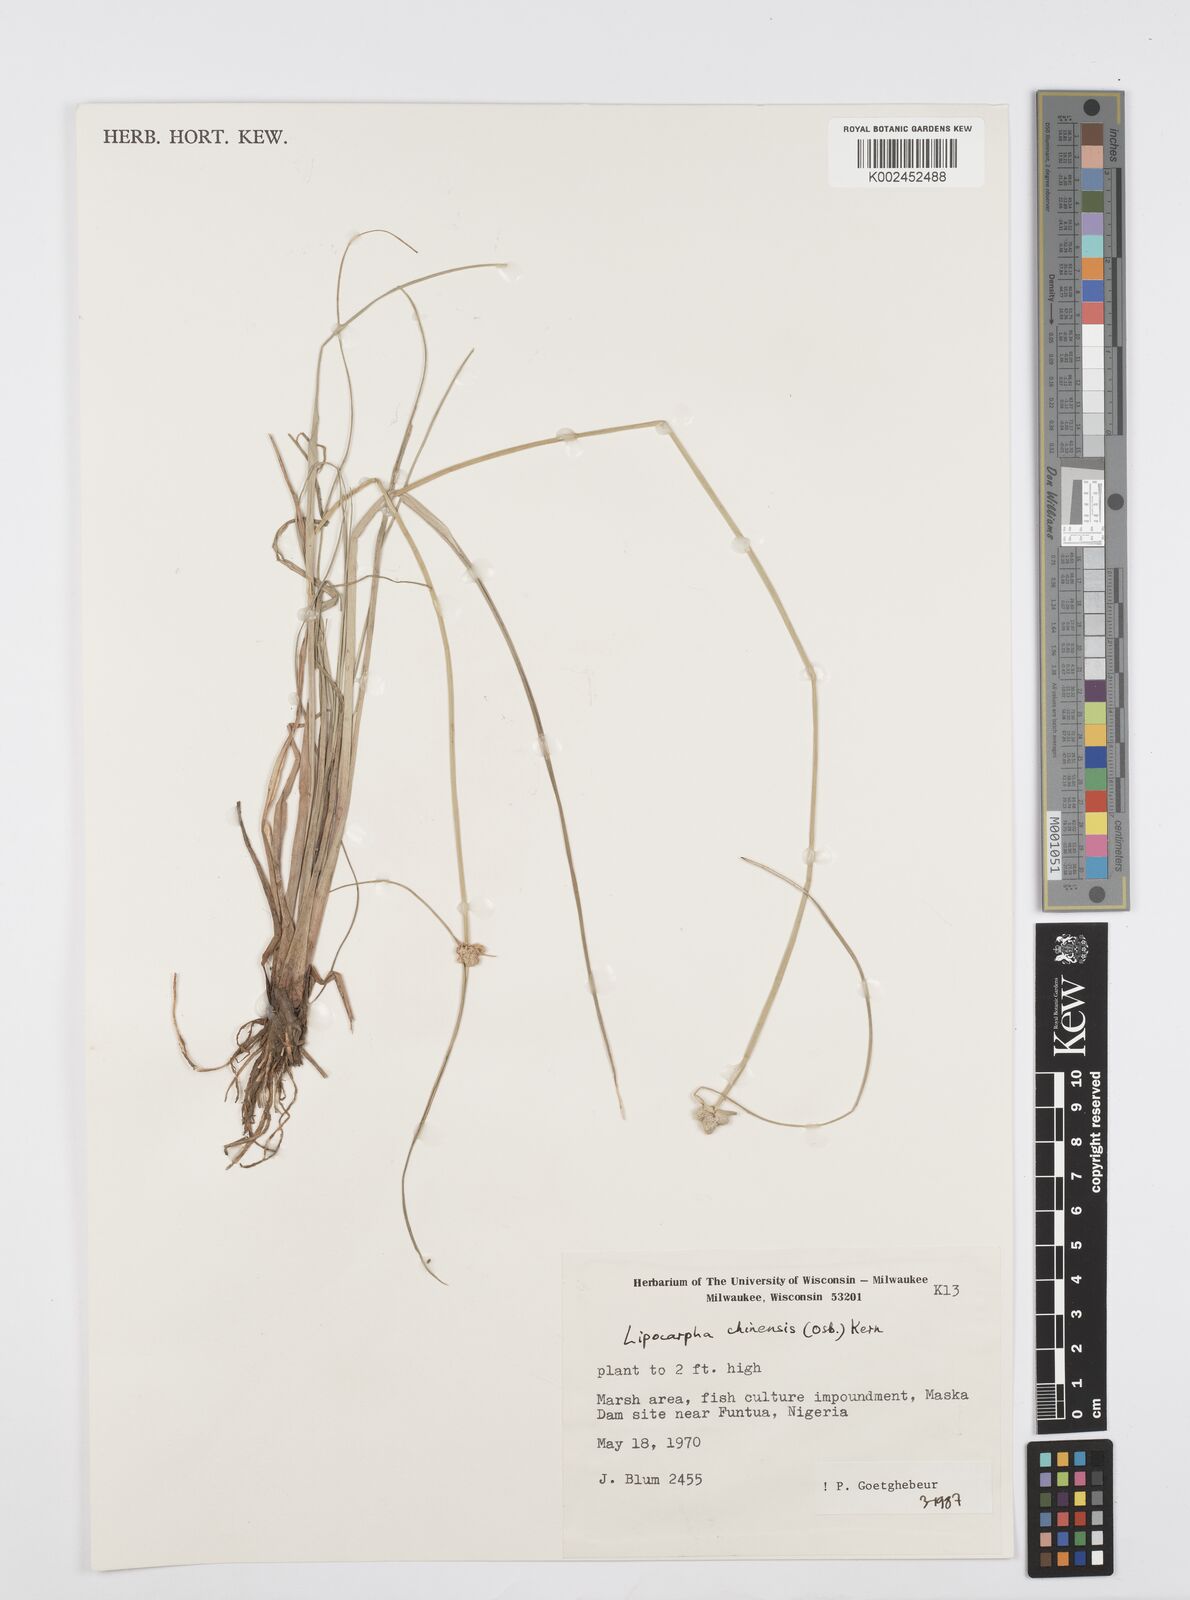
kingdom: Plantae
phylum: Tracheophyta
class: Liliopsida
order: Poales
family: Cyperaceae
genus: Cyperus
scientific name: Cyperus albescens
